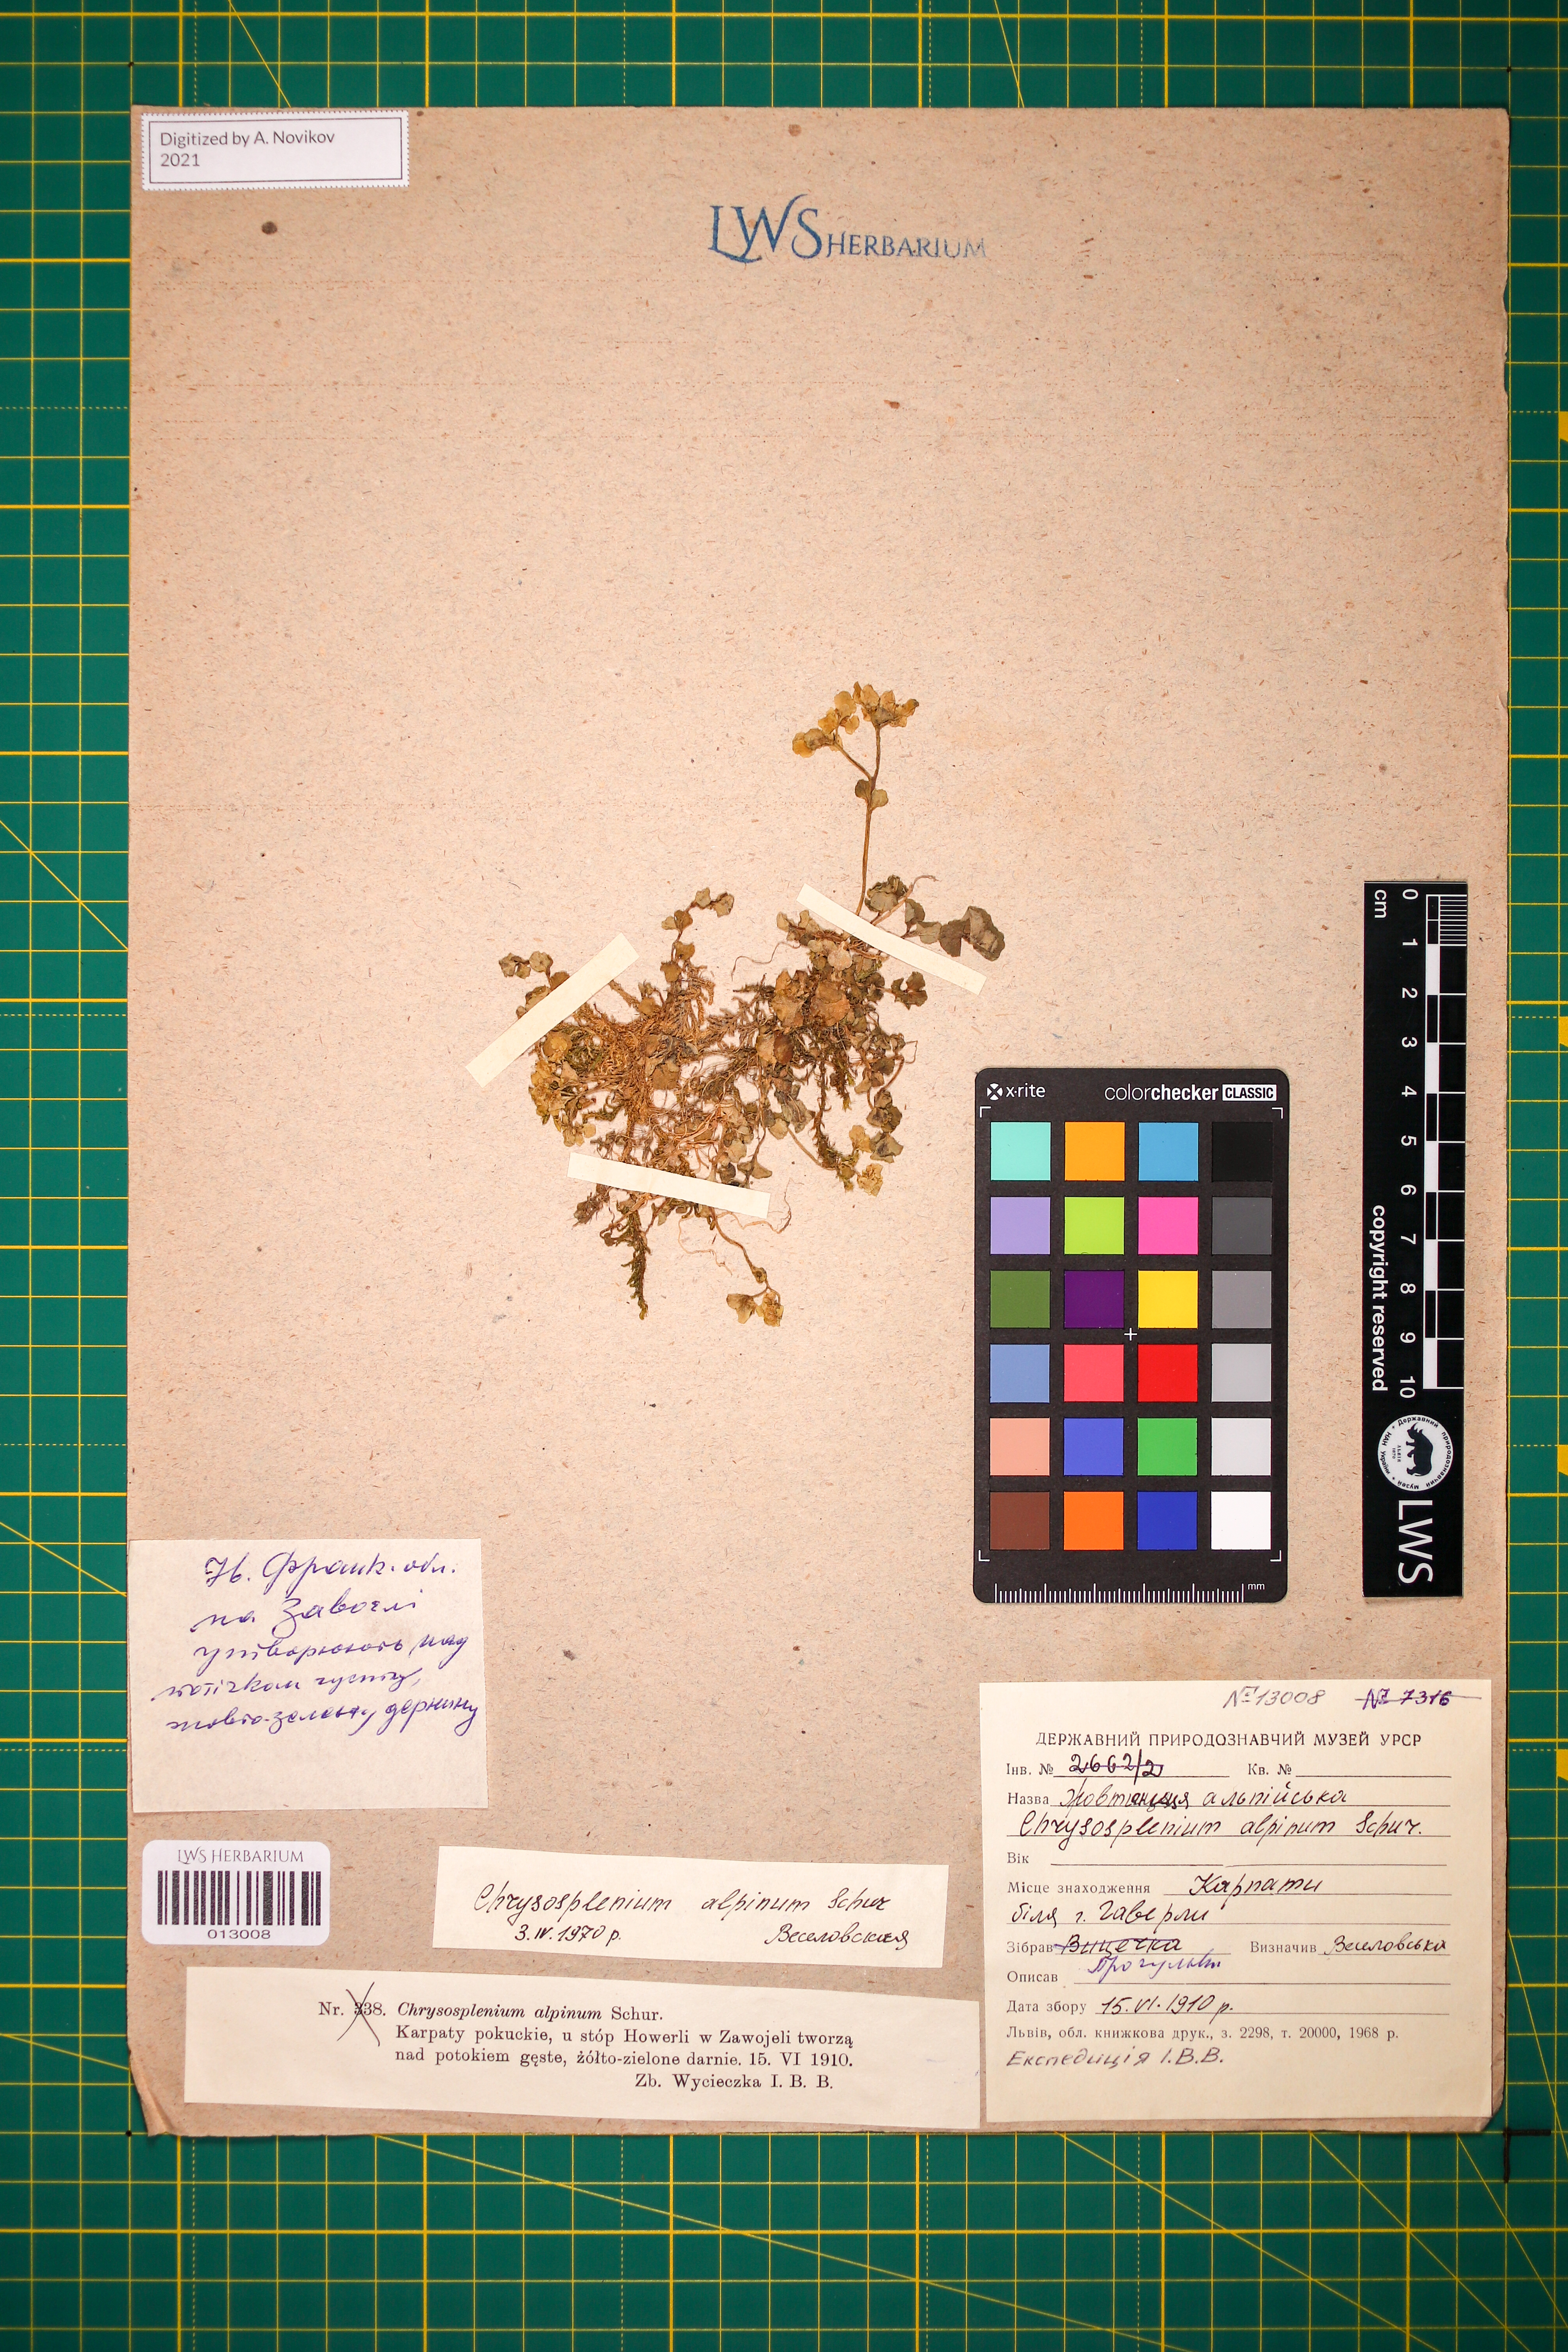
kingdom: Plantae
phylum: Tracheophyta
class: Magnoliopsida
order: Saxifragales
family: Saxifragaceae
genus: Chrysosplenium
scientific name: Chrysosplenium alpinum
